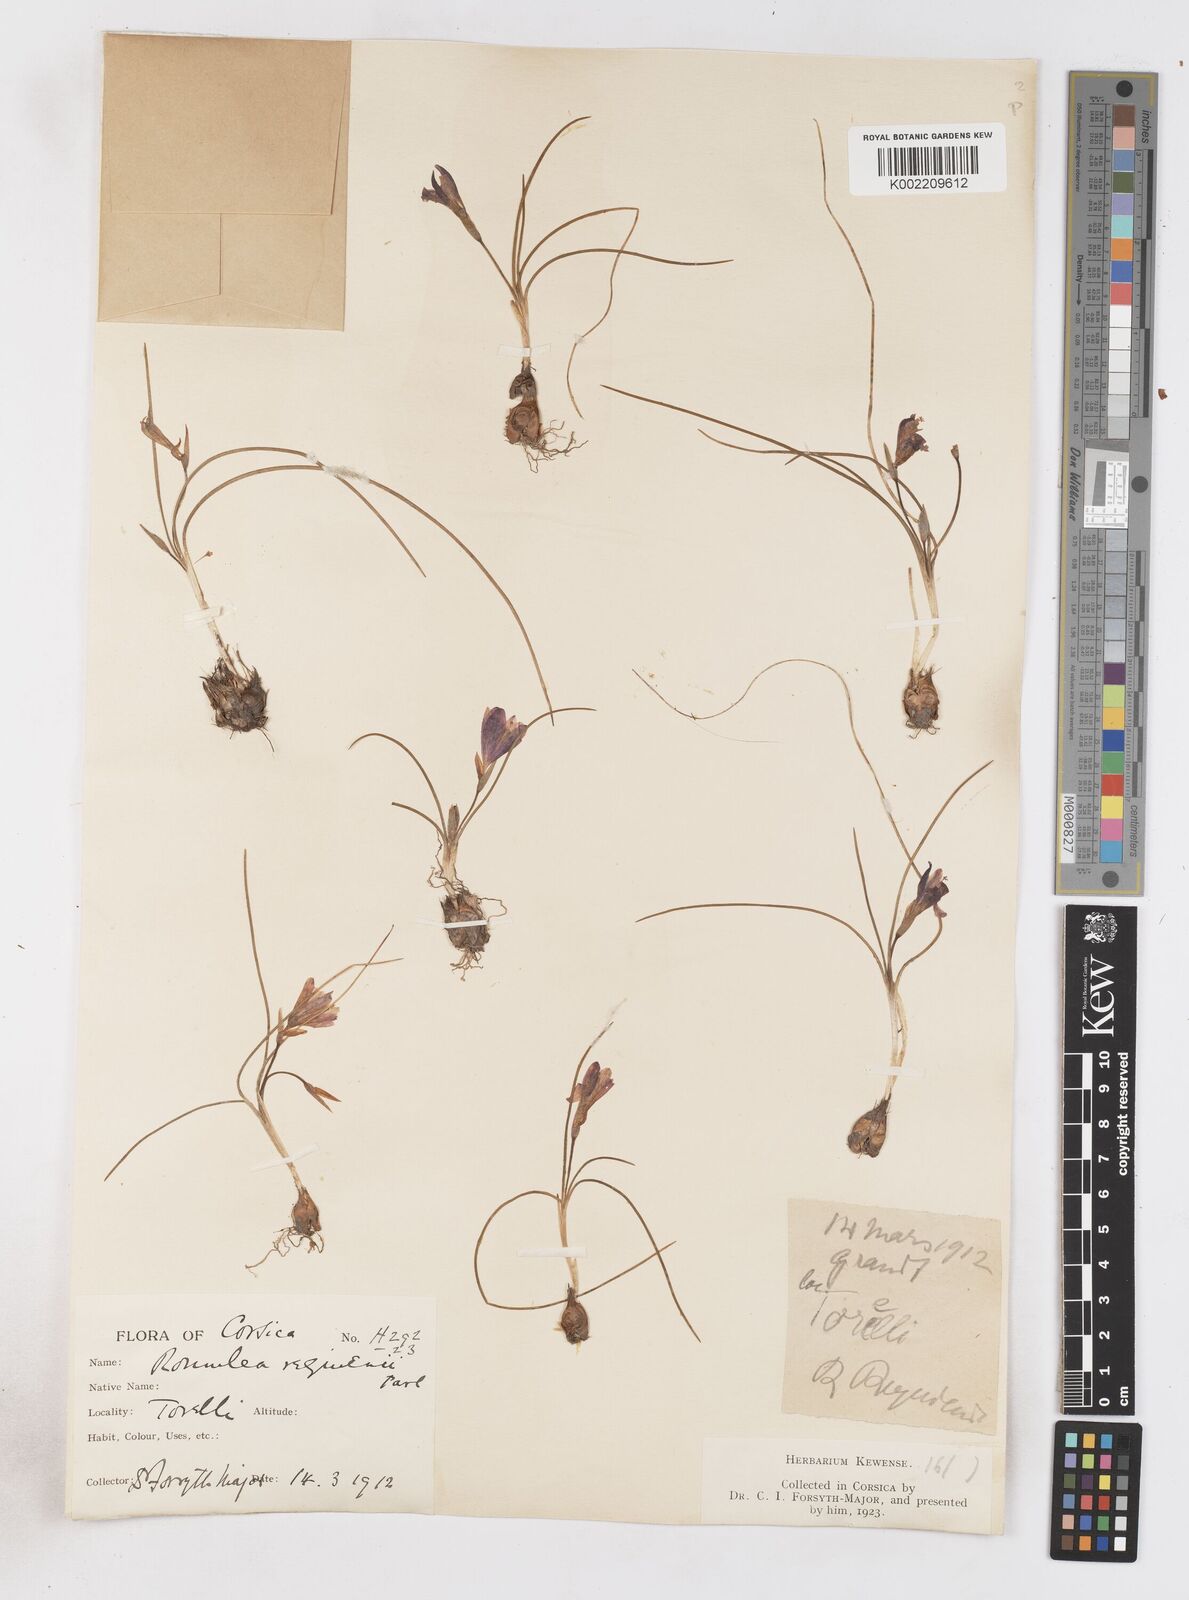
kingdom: Plantae
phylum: Tracheophyta
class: Liliopsida
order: Asparagales
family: Iridaceae
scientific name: Iridaceae
